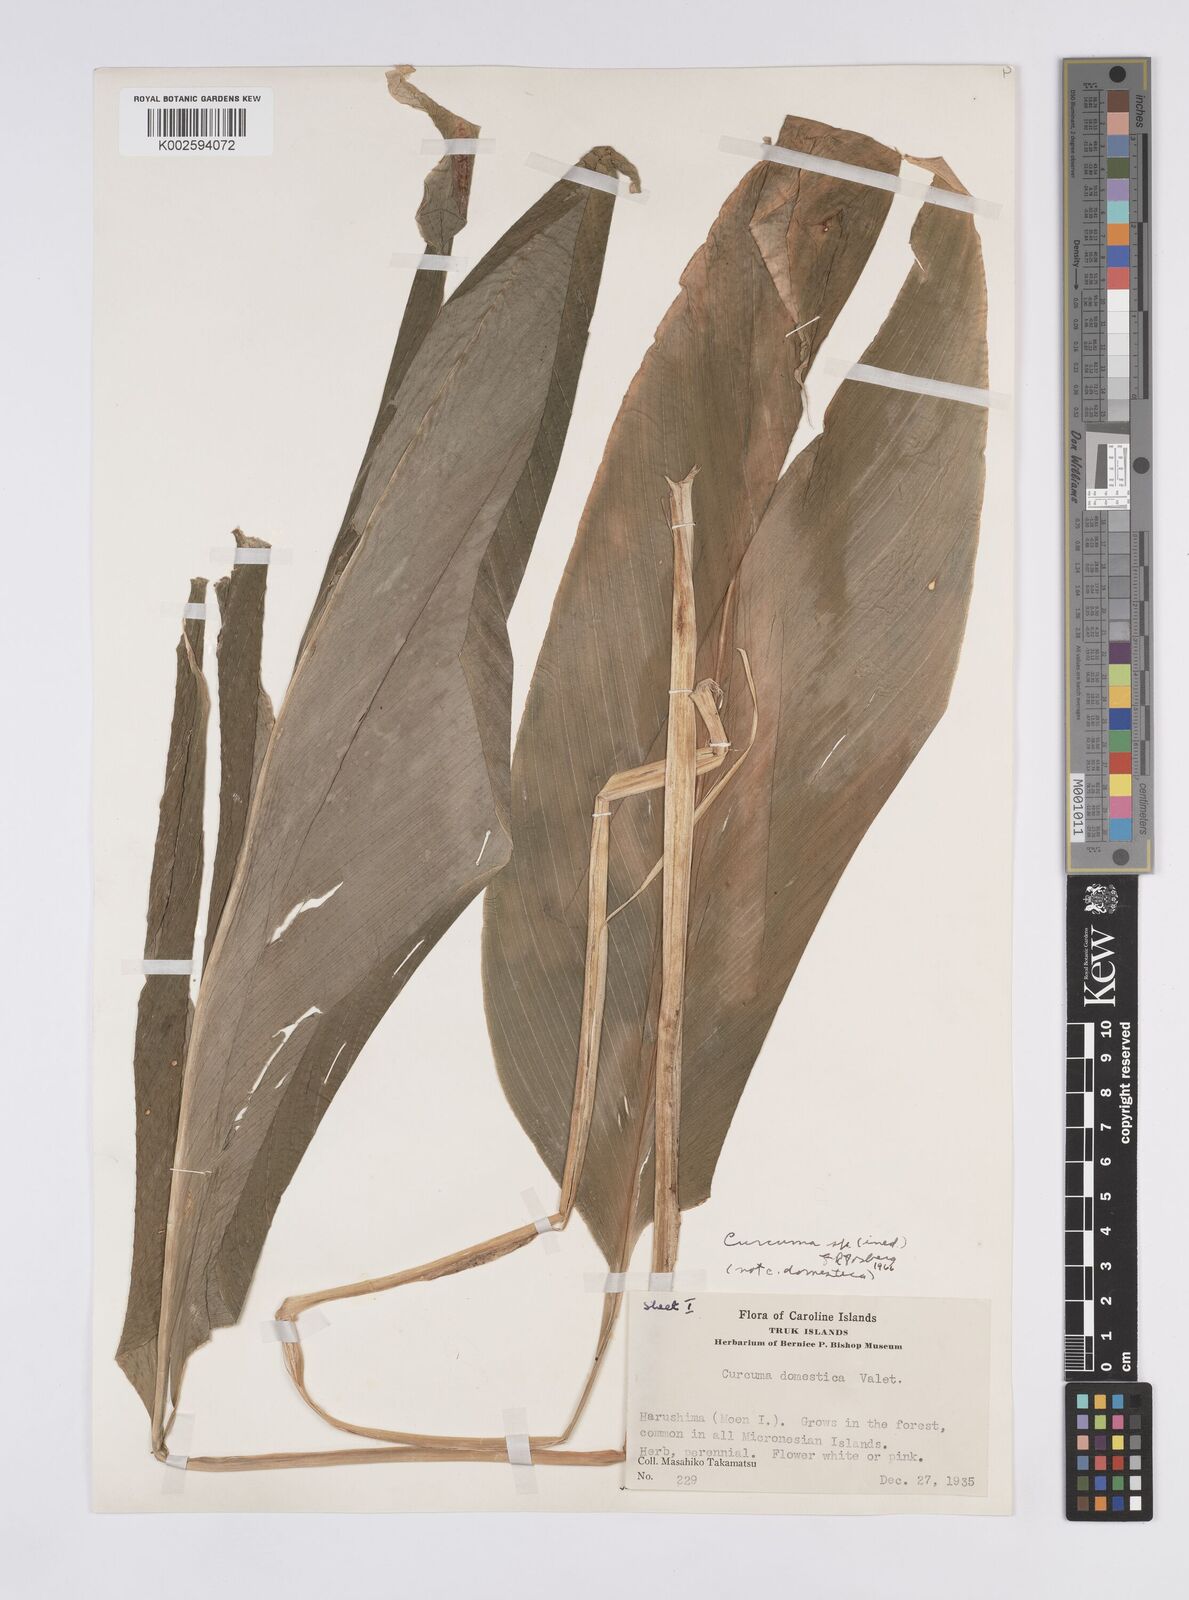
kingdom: Plantae
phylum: Tracheophyta
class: Liliopsida
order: Zingiberales
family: Zingiberaceae
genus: Curcuma
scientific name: Curcuma
